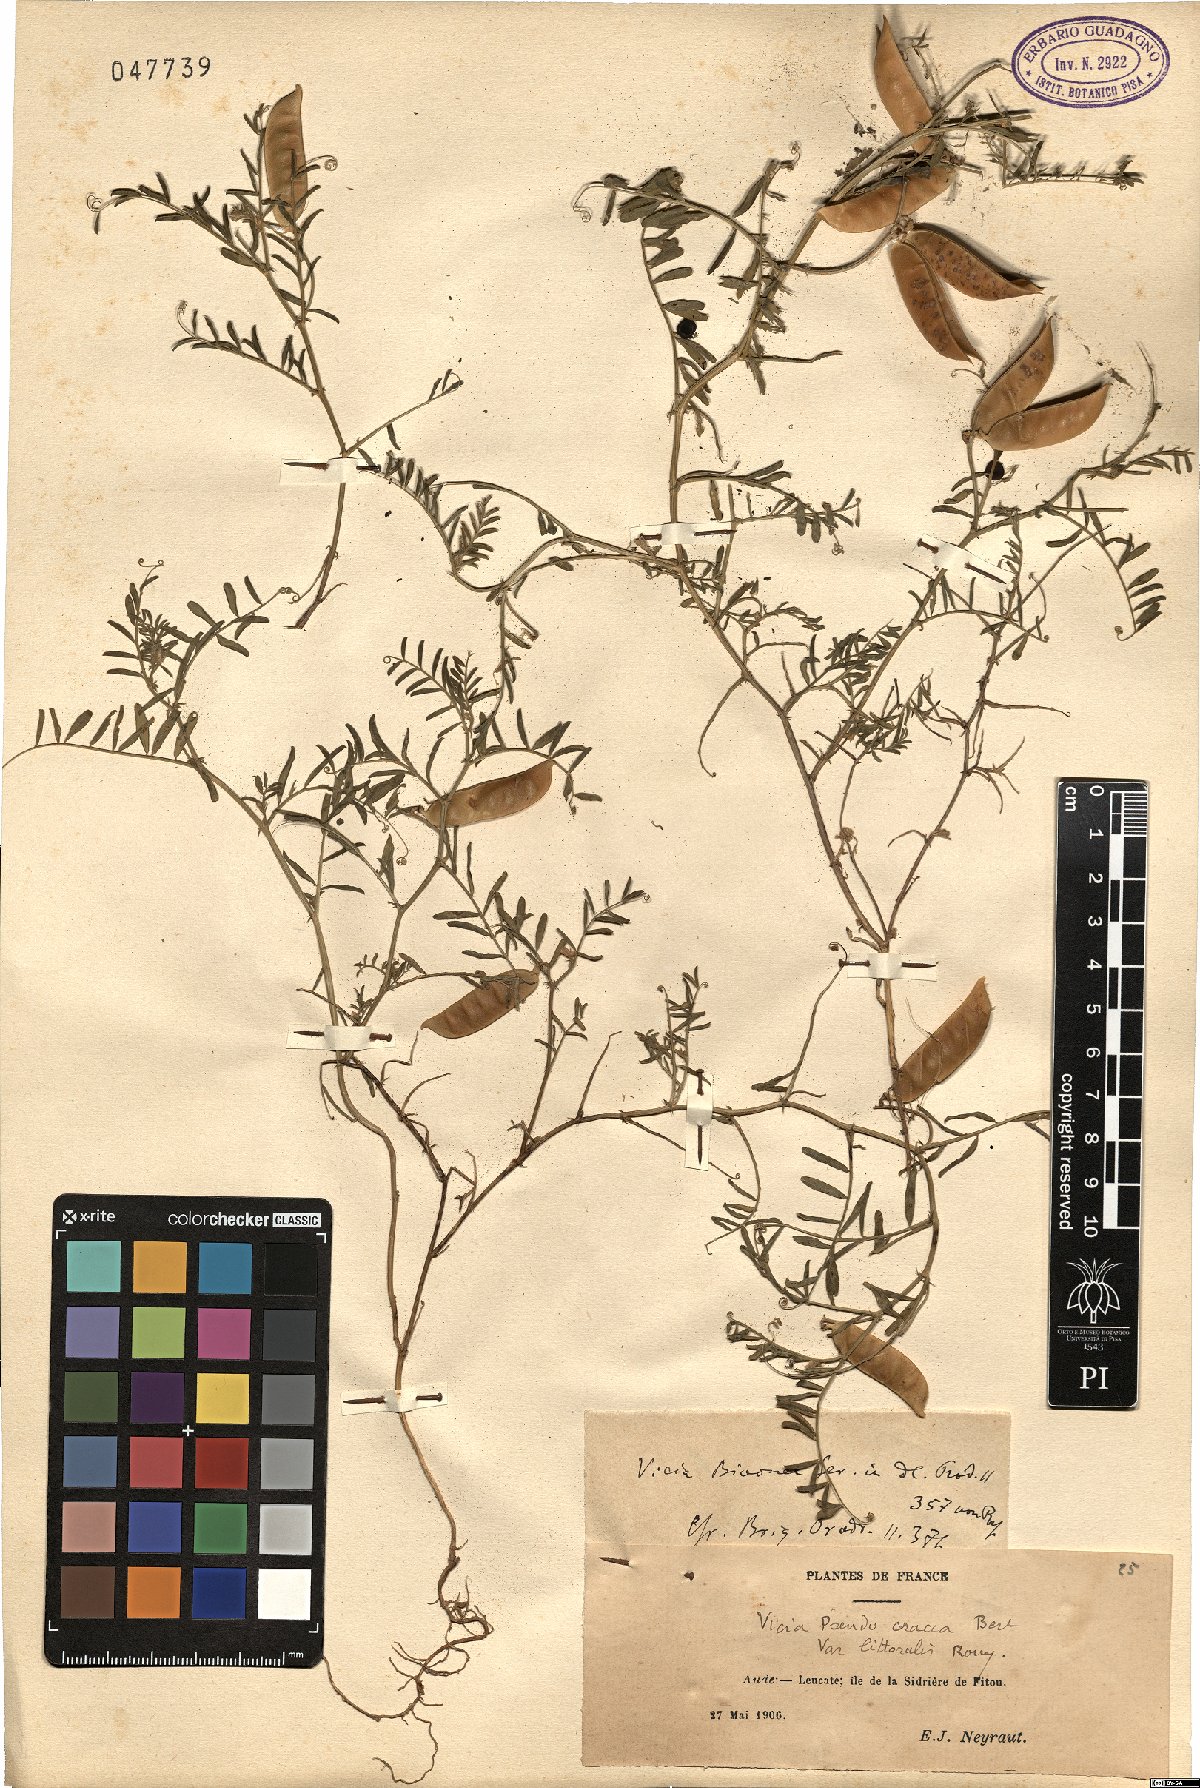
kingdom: Plantae
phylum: Tracheophyta
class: Magnoliopsida
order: Fabales
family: Fabaceae
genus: Vicia
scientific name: Vicia villosa
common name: Fodder vetch
